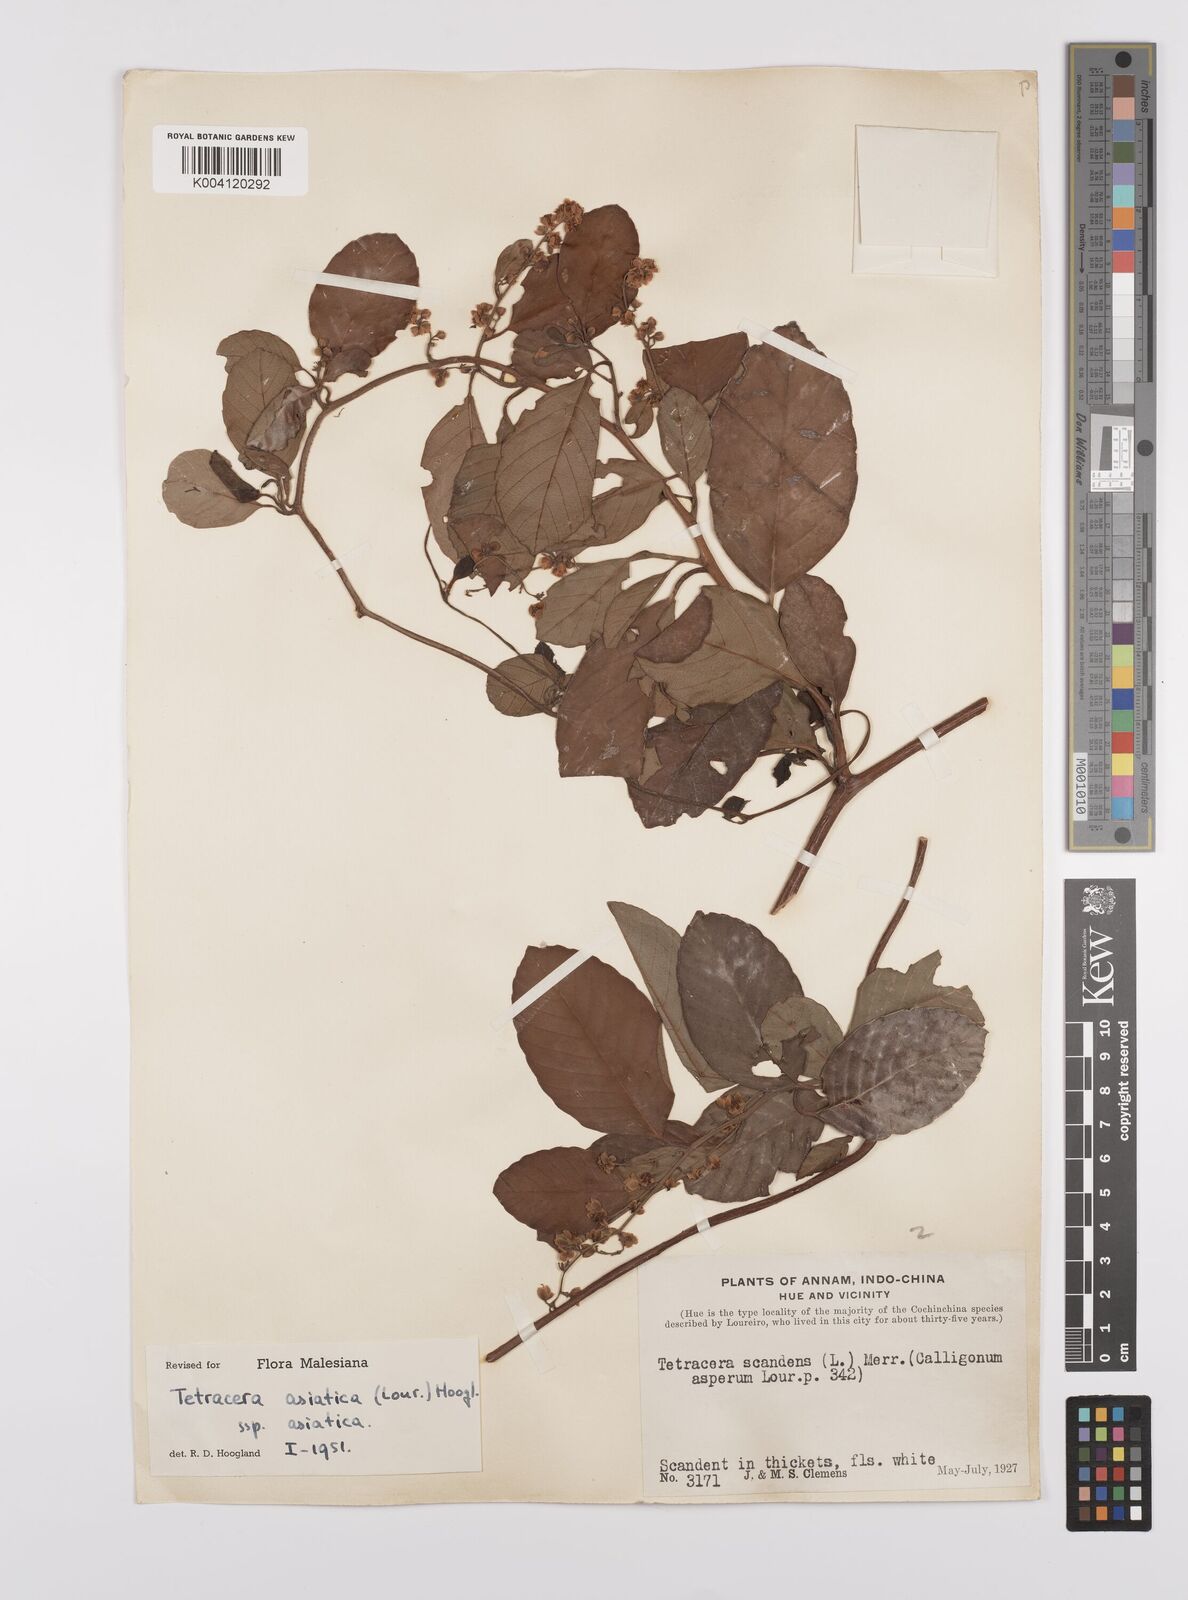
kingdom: Plantae
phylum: Tracheophyta
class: Magnoliopsida
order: Dilleniales
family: Dilleniaceae
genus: Tetracera
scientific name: Tetracera sarmentosa
